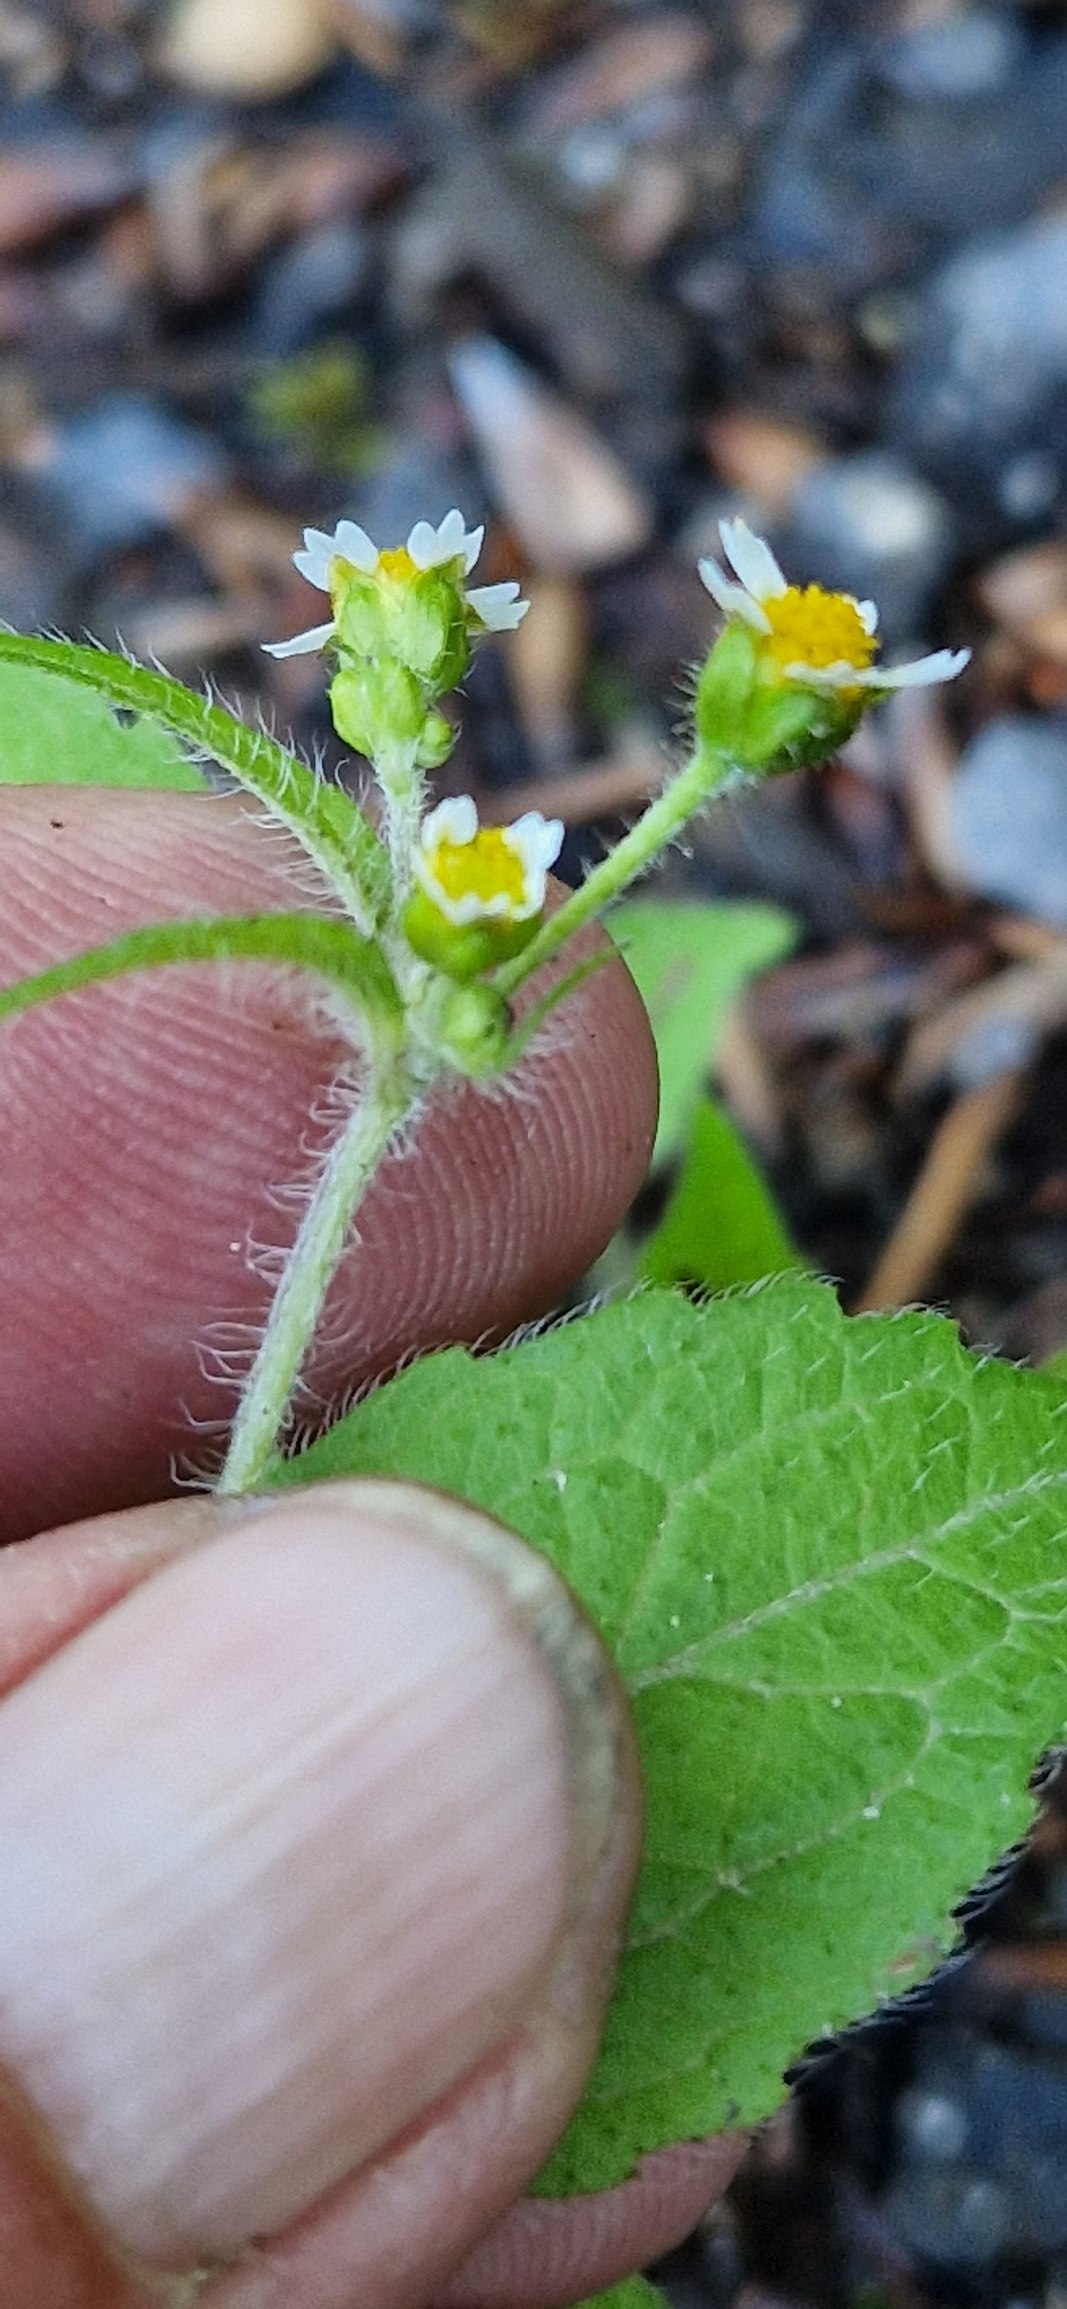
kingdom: Plantae
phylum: Tracheophyta
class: Magnoliopsida
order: Asterales
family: Asteraceae
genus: Galinsoga
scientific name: Galinsoga quadriradiata
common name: Kirtel-kortstråle
